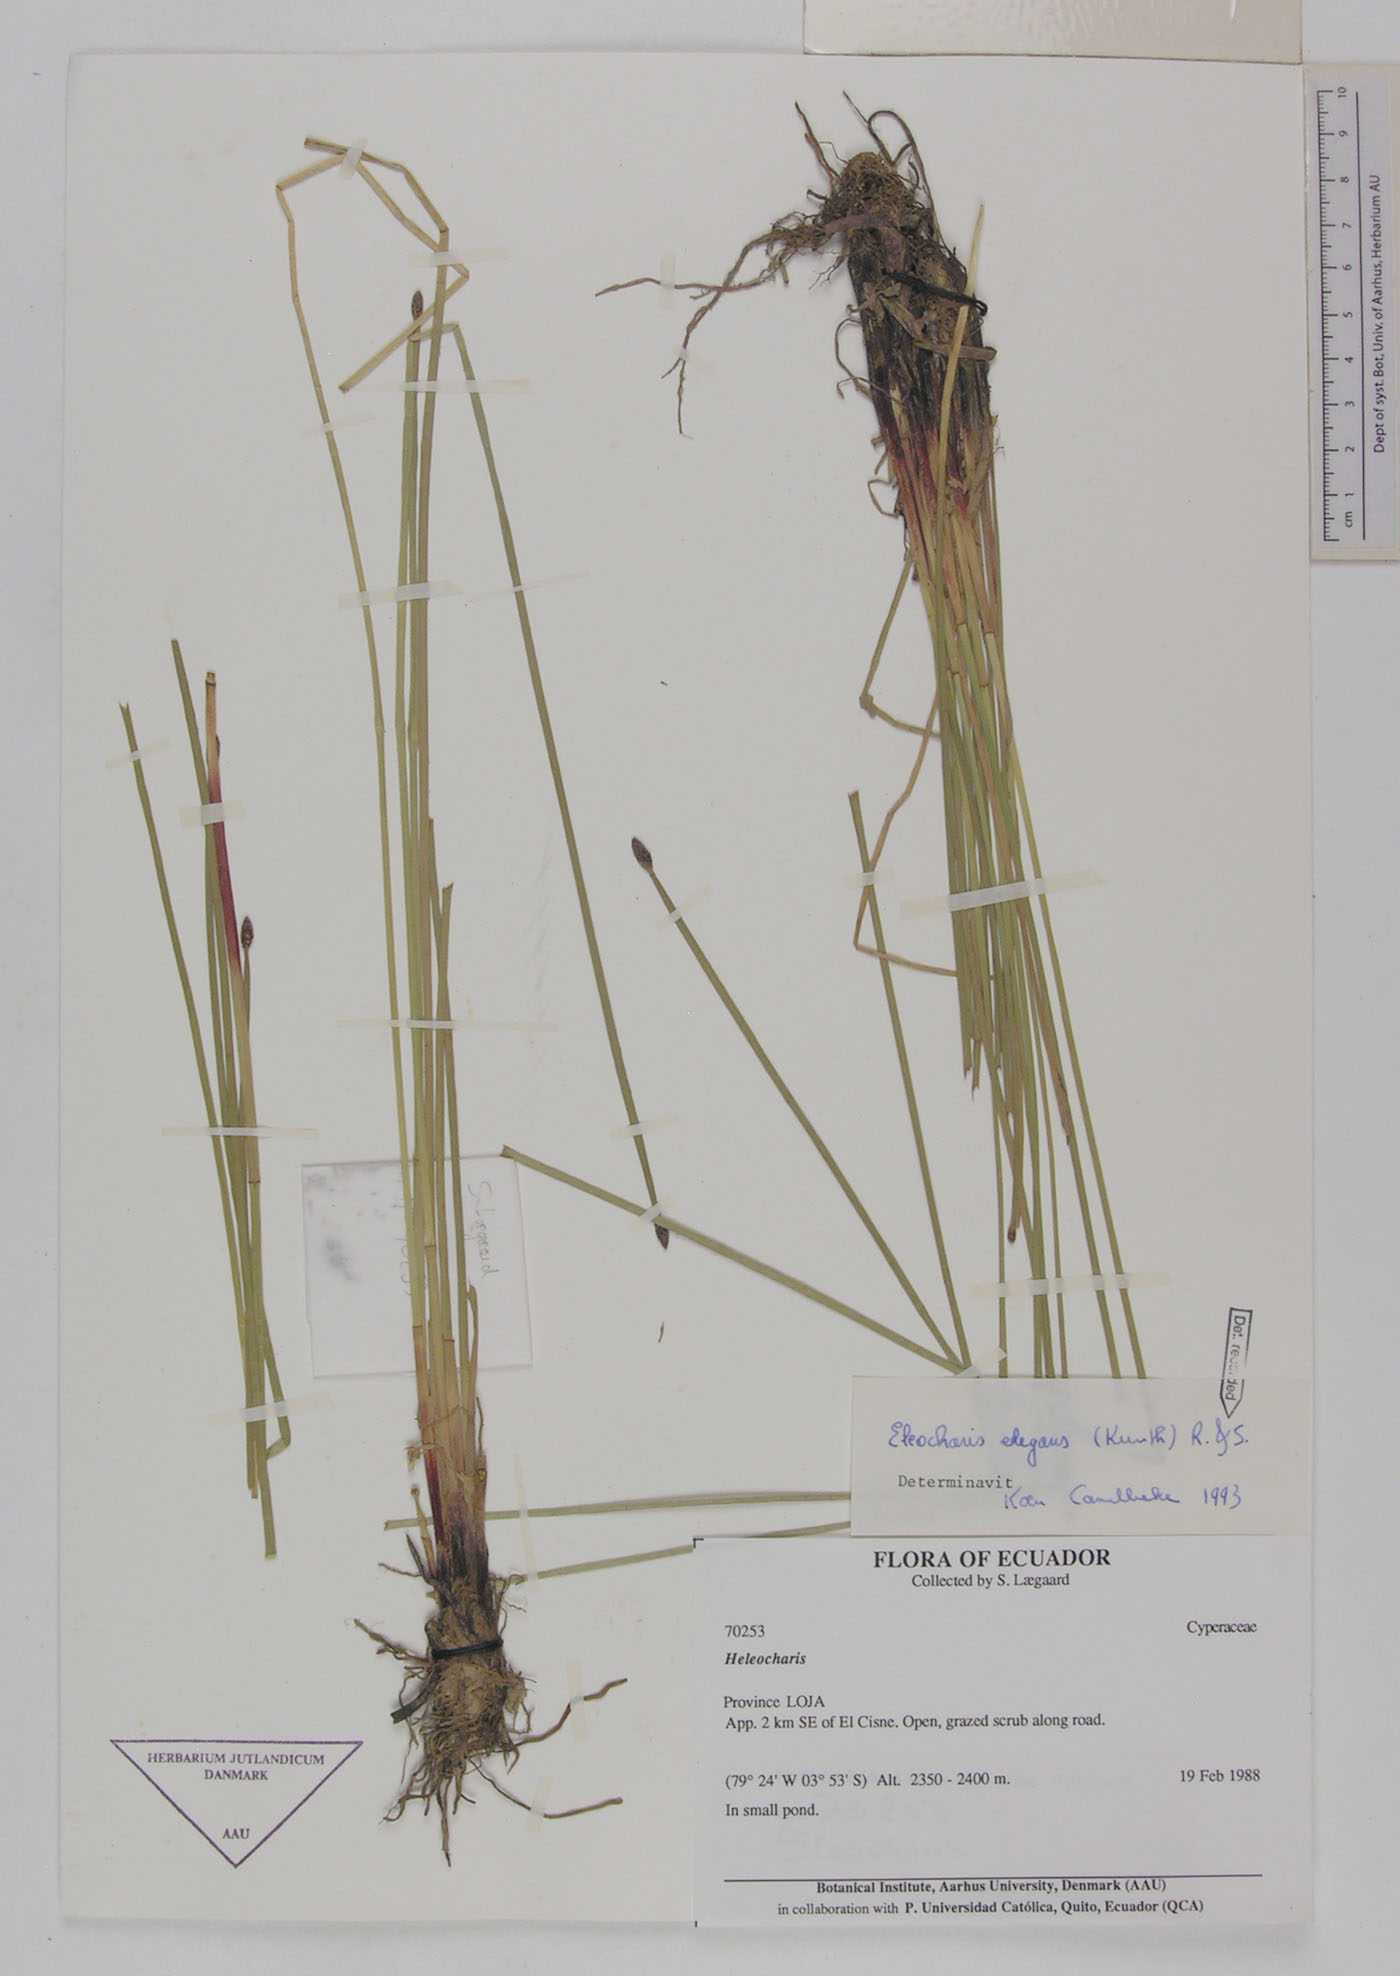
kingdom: Plantae
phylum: Tracheophyta
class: Liliopsida
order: Poales
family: Cyperaceae
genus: Eleocharis
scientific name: Eleocharis elegans
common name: Elegant spike-rush
